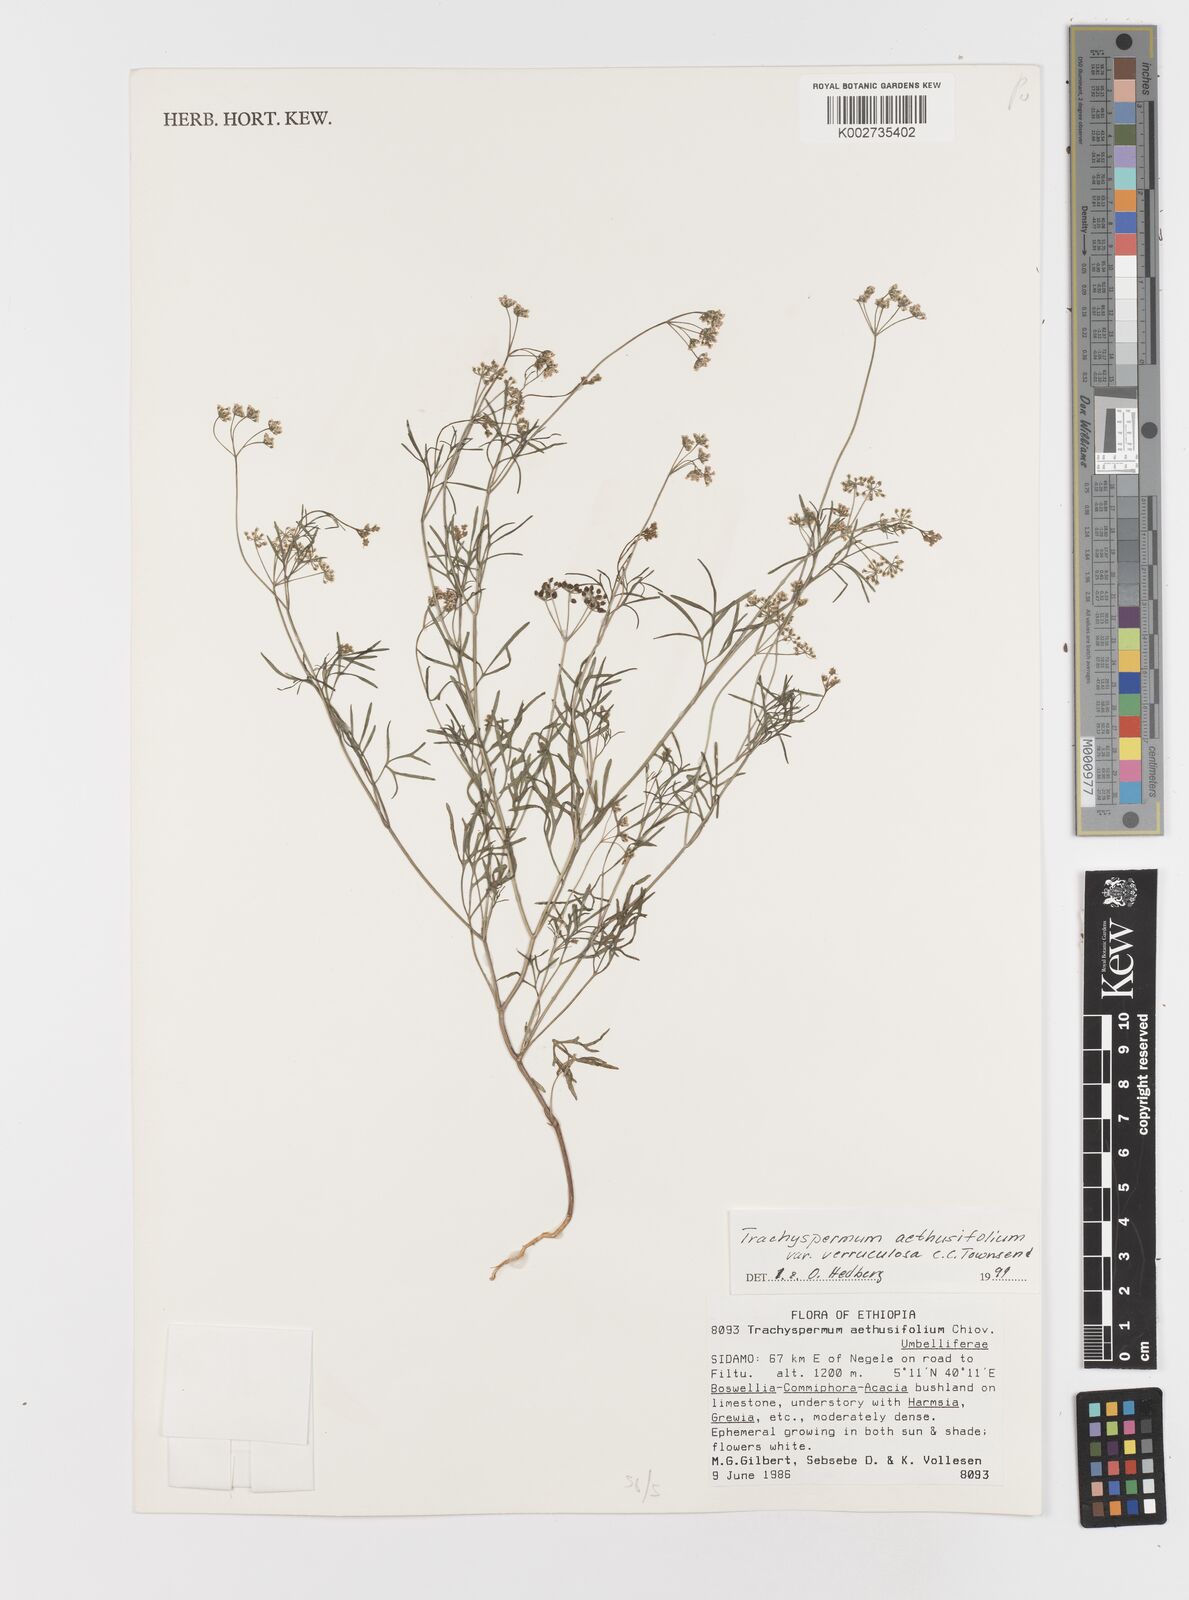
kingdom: Plantae
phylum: Tracheophyta
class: Magnoliopsida
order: Apiales
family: Apiaceae
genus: Trachyspermum
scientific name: Trachyspermum pimpinelloides
